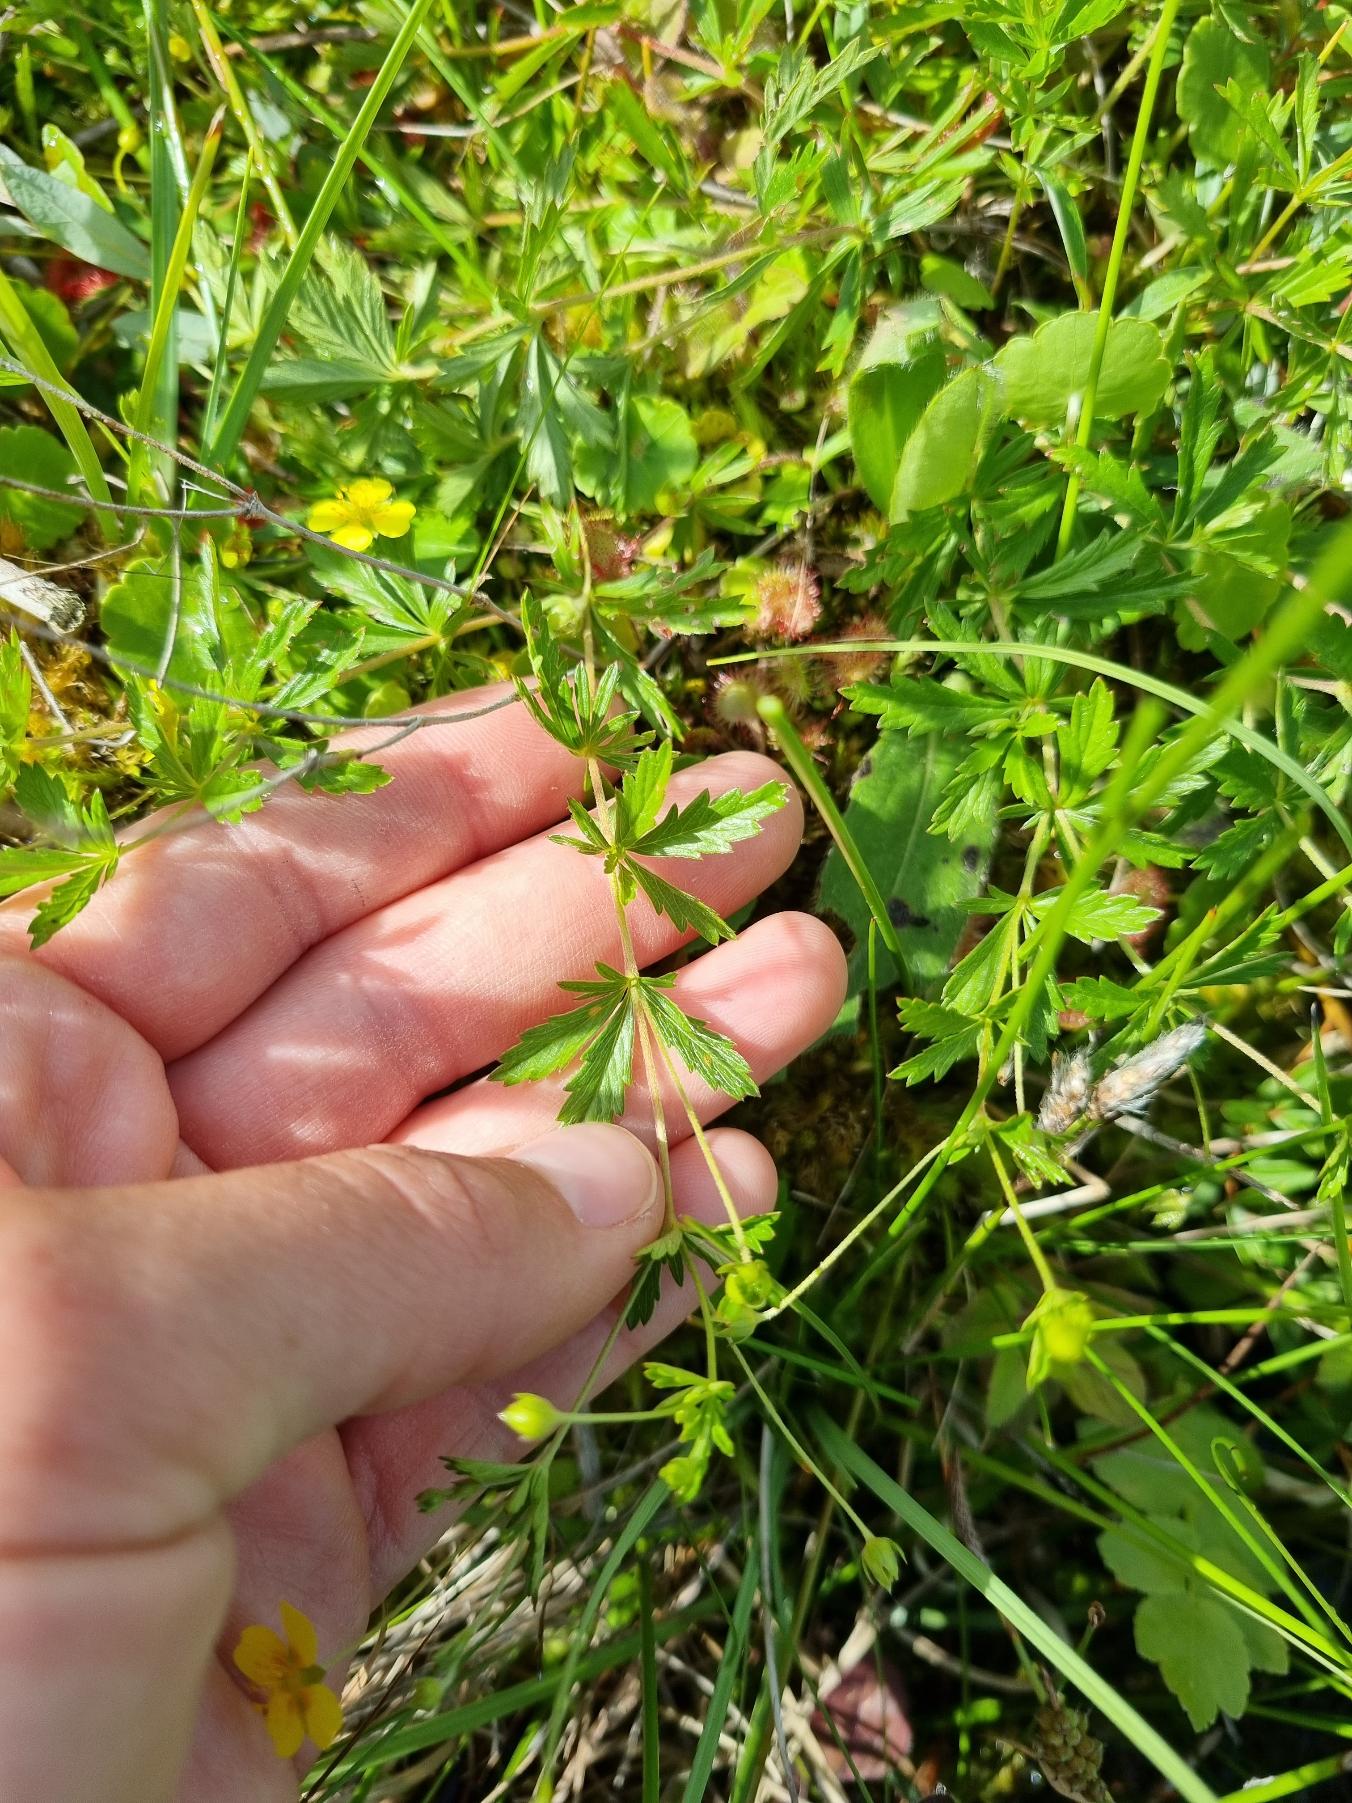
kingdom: Plantae
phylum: Tracheophyta
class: Magnoliopsida
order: Rosales
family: Rosaceae
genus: Potentilla
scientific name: Potentilla erecta
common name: Tormentil
